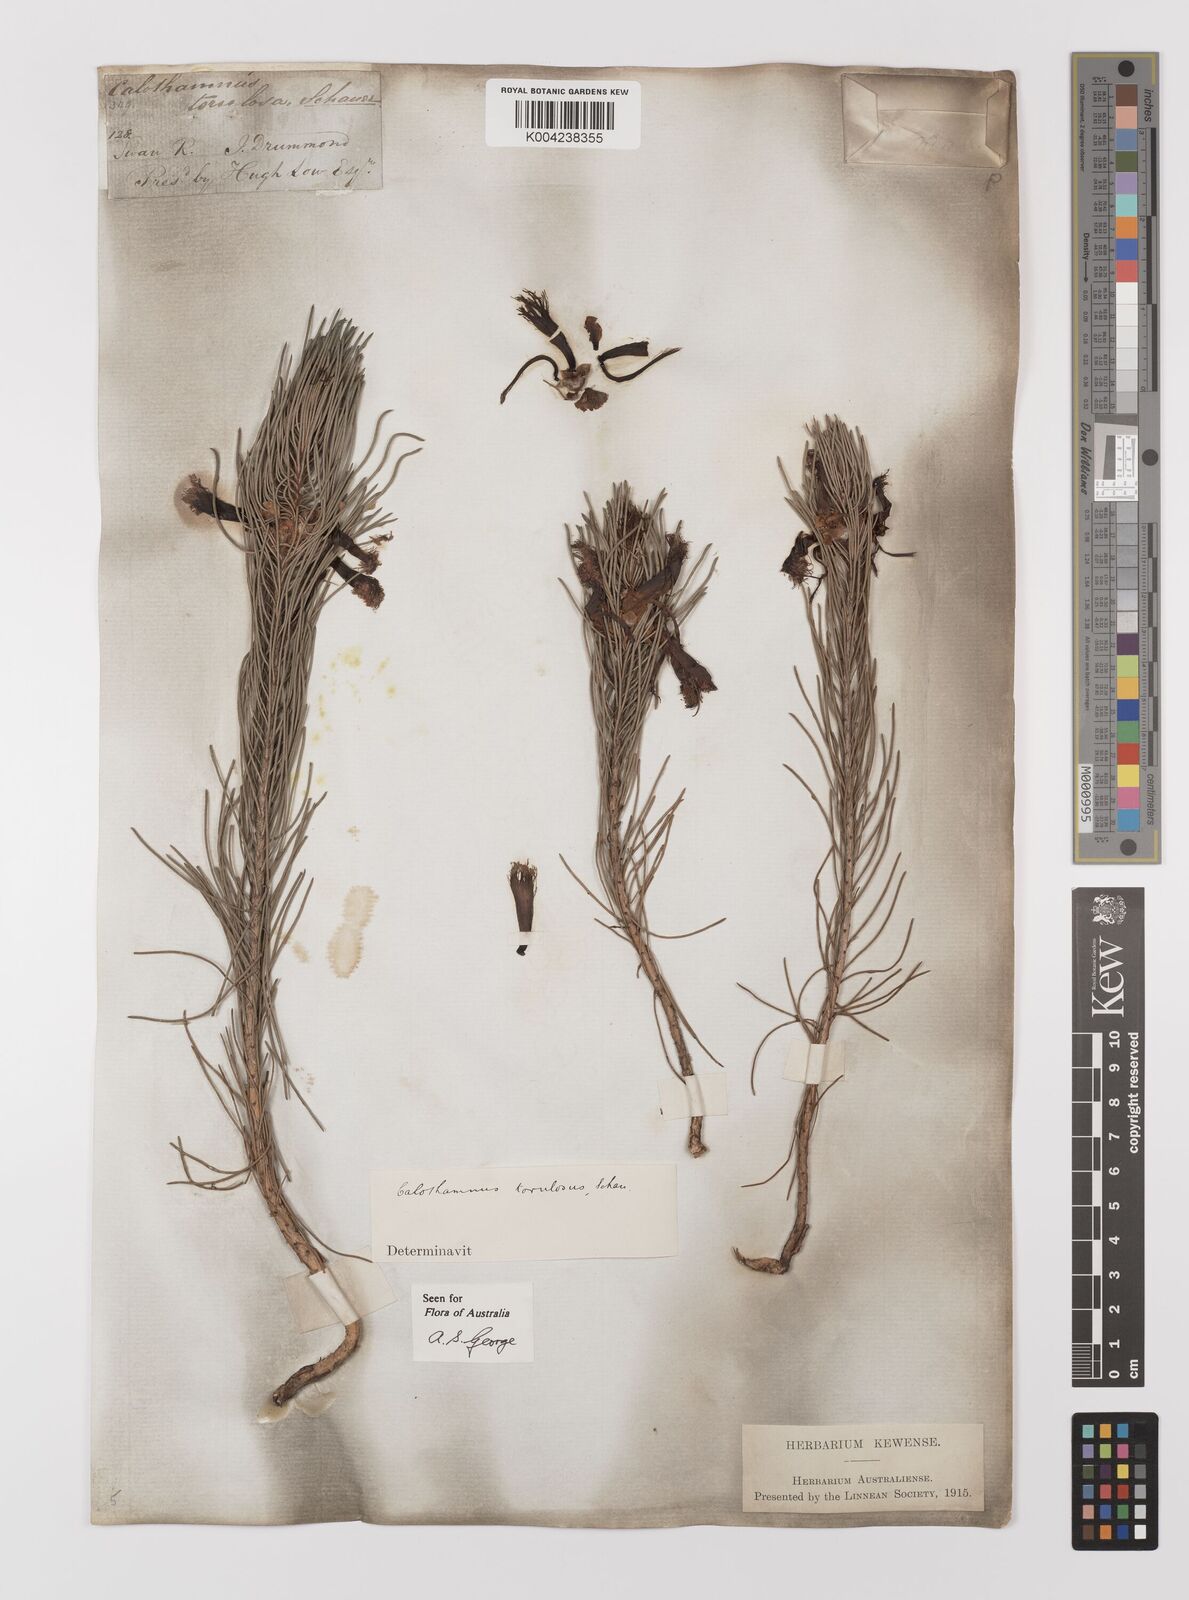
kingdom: Plantae
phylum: Tracheophyta
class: Magnoliopsida
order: Myrtales
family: Myrtaceae
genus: Melaleuca
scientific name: Melaleuca torulosa
